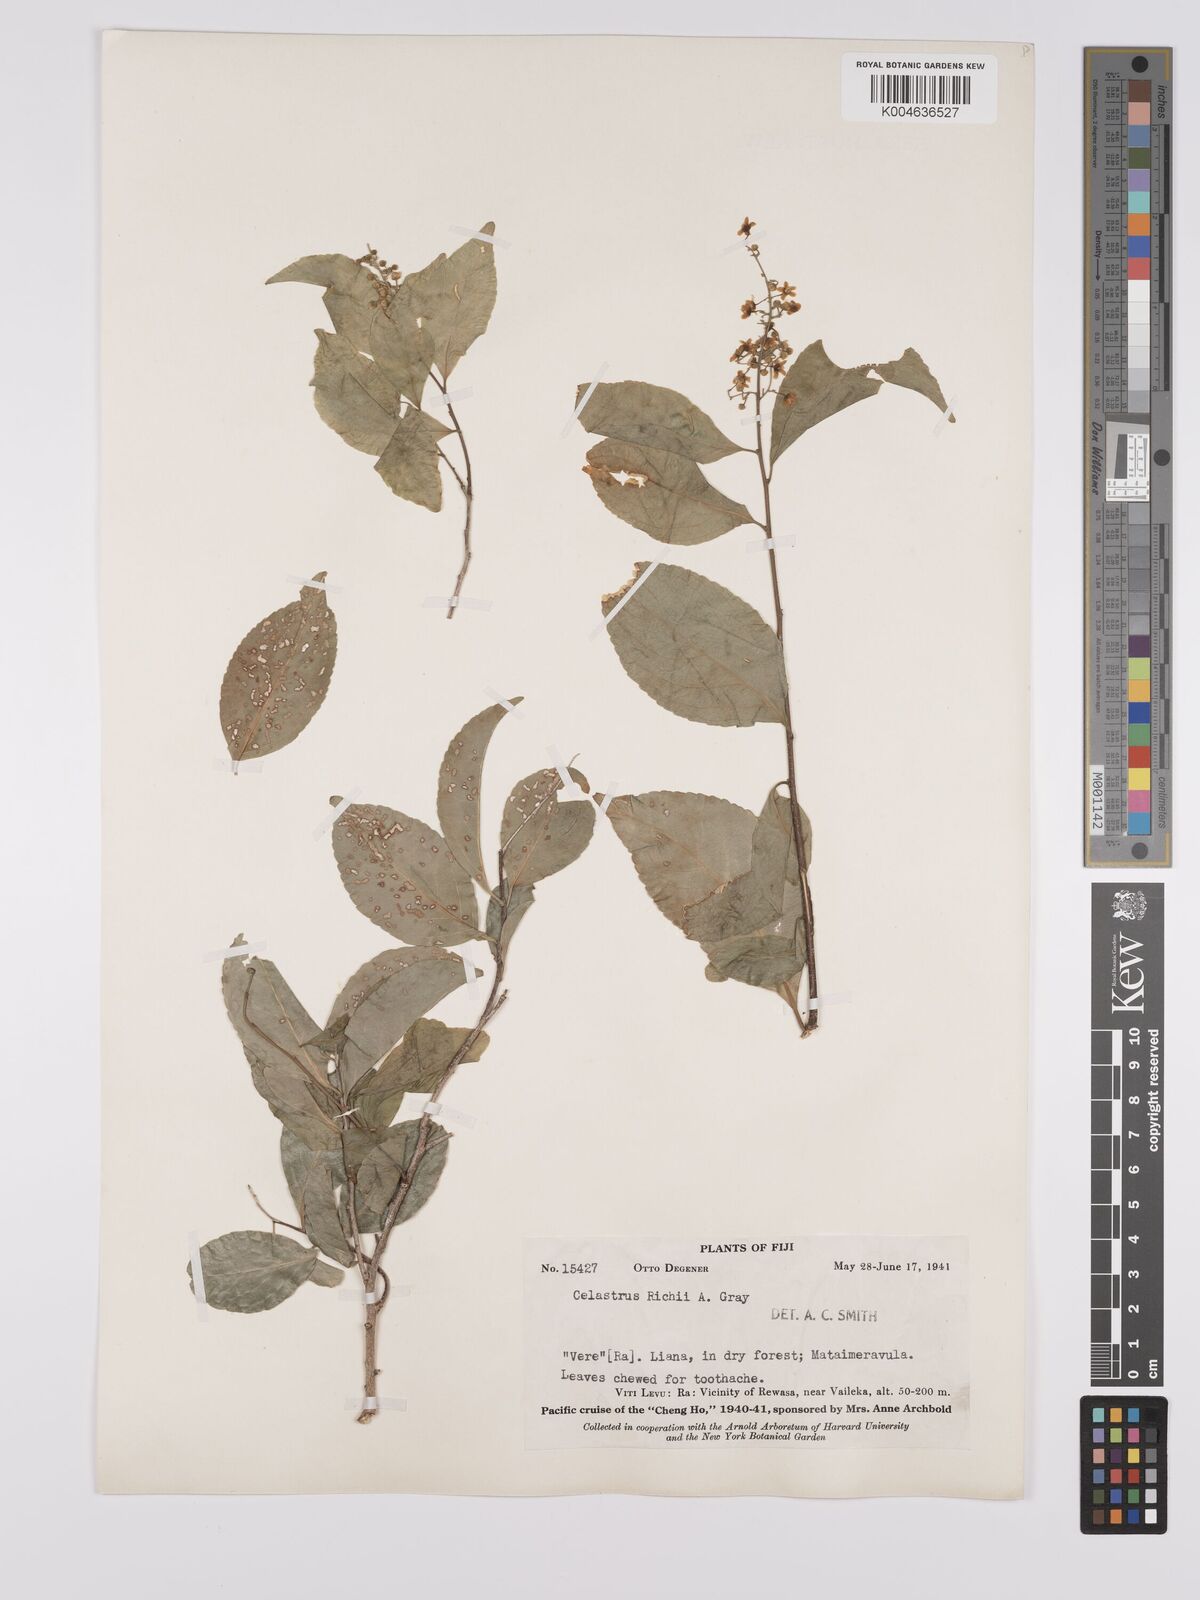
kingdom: Plantae
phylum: Tracheophyta
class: Magnoliopsida
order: Celastrales
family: Celastraceae
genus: Celastrus
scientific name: Celastrus richii
